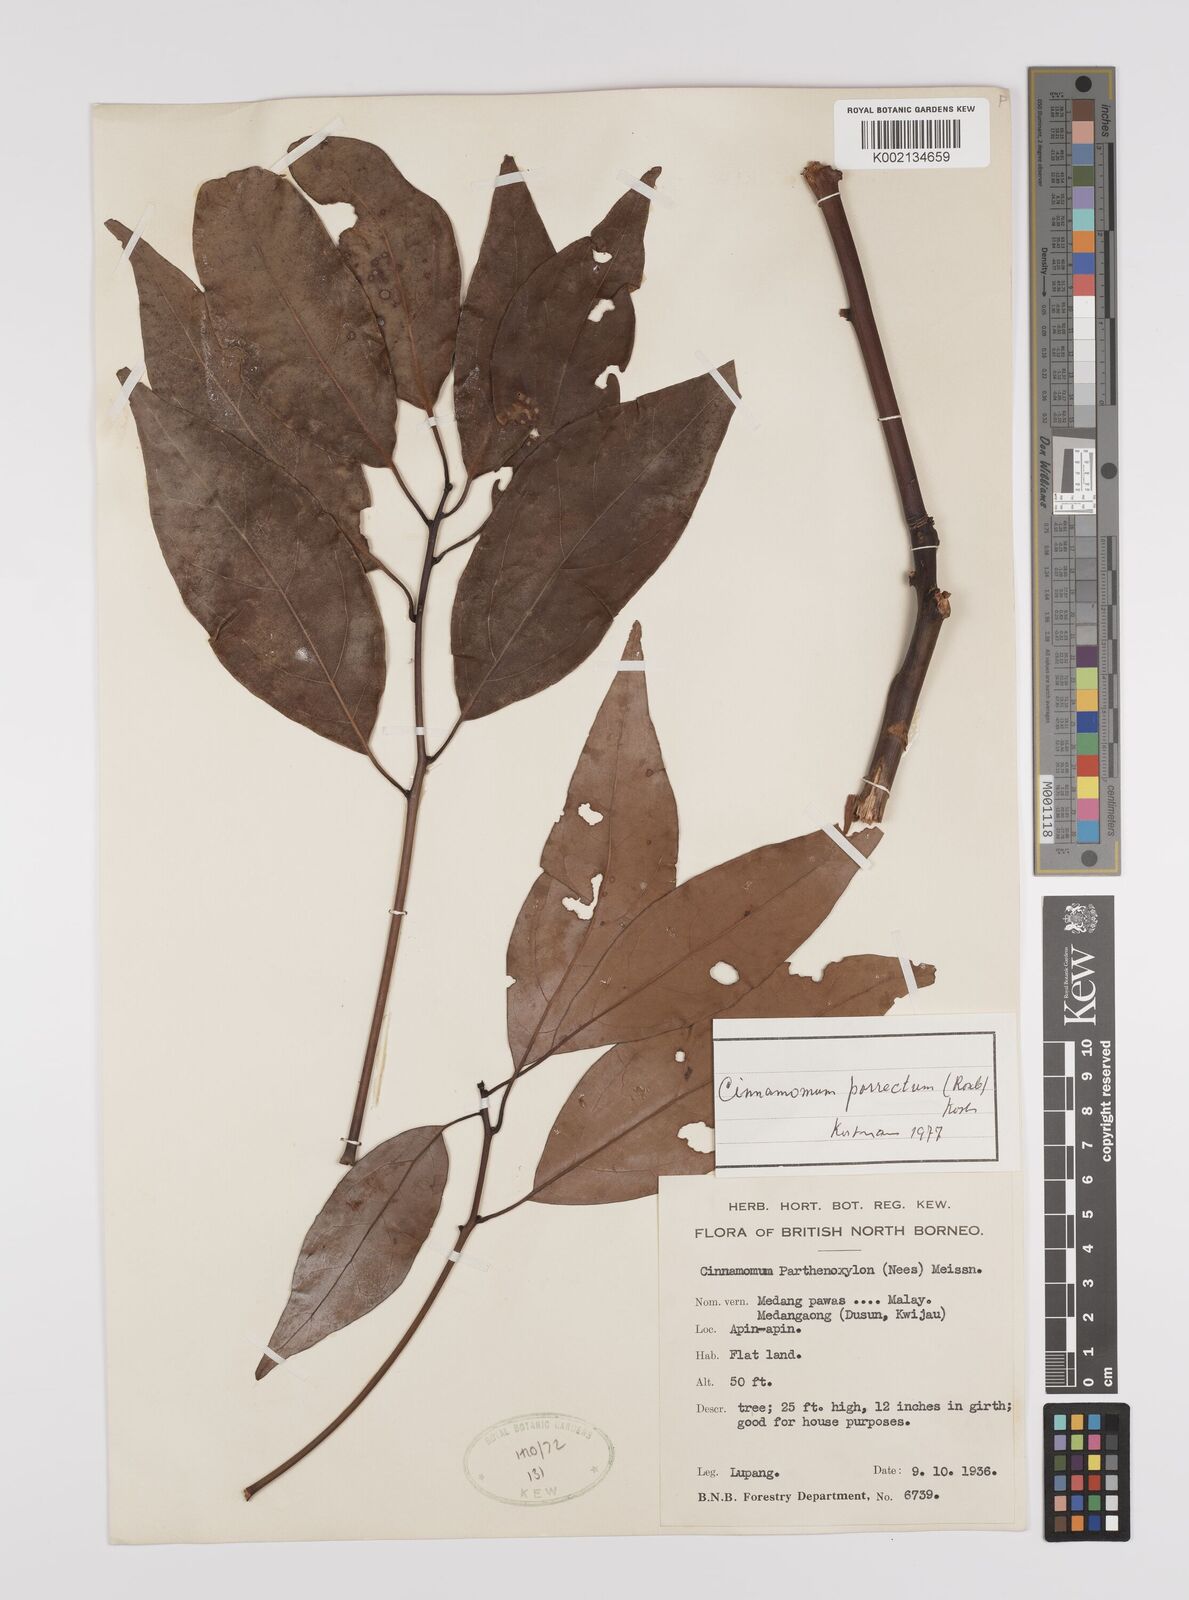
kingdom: Plantae
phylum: Tracheophyta
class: Magnoliopsida
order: Laurales
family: Lauraceae
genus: Cinnamomum
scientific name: Cinnamomum parthenoxylon
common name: Martaban camphor wood
